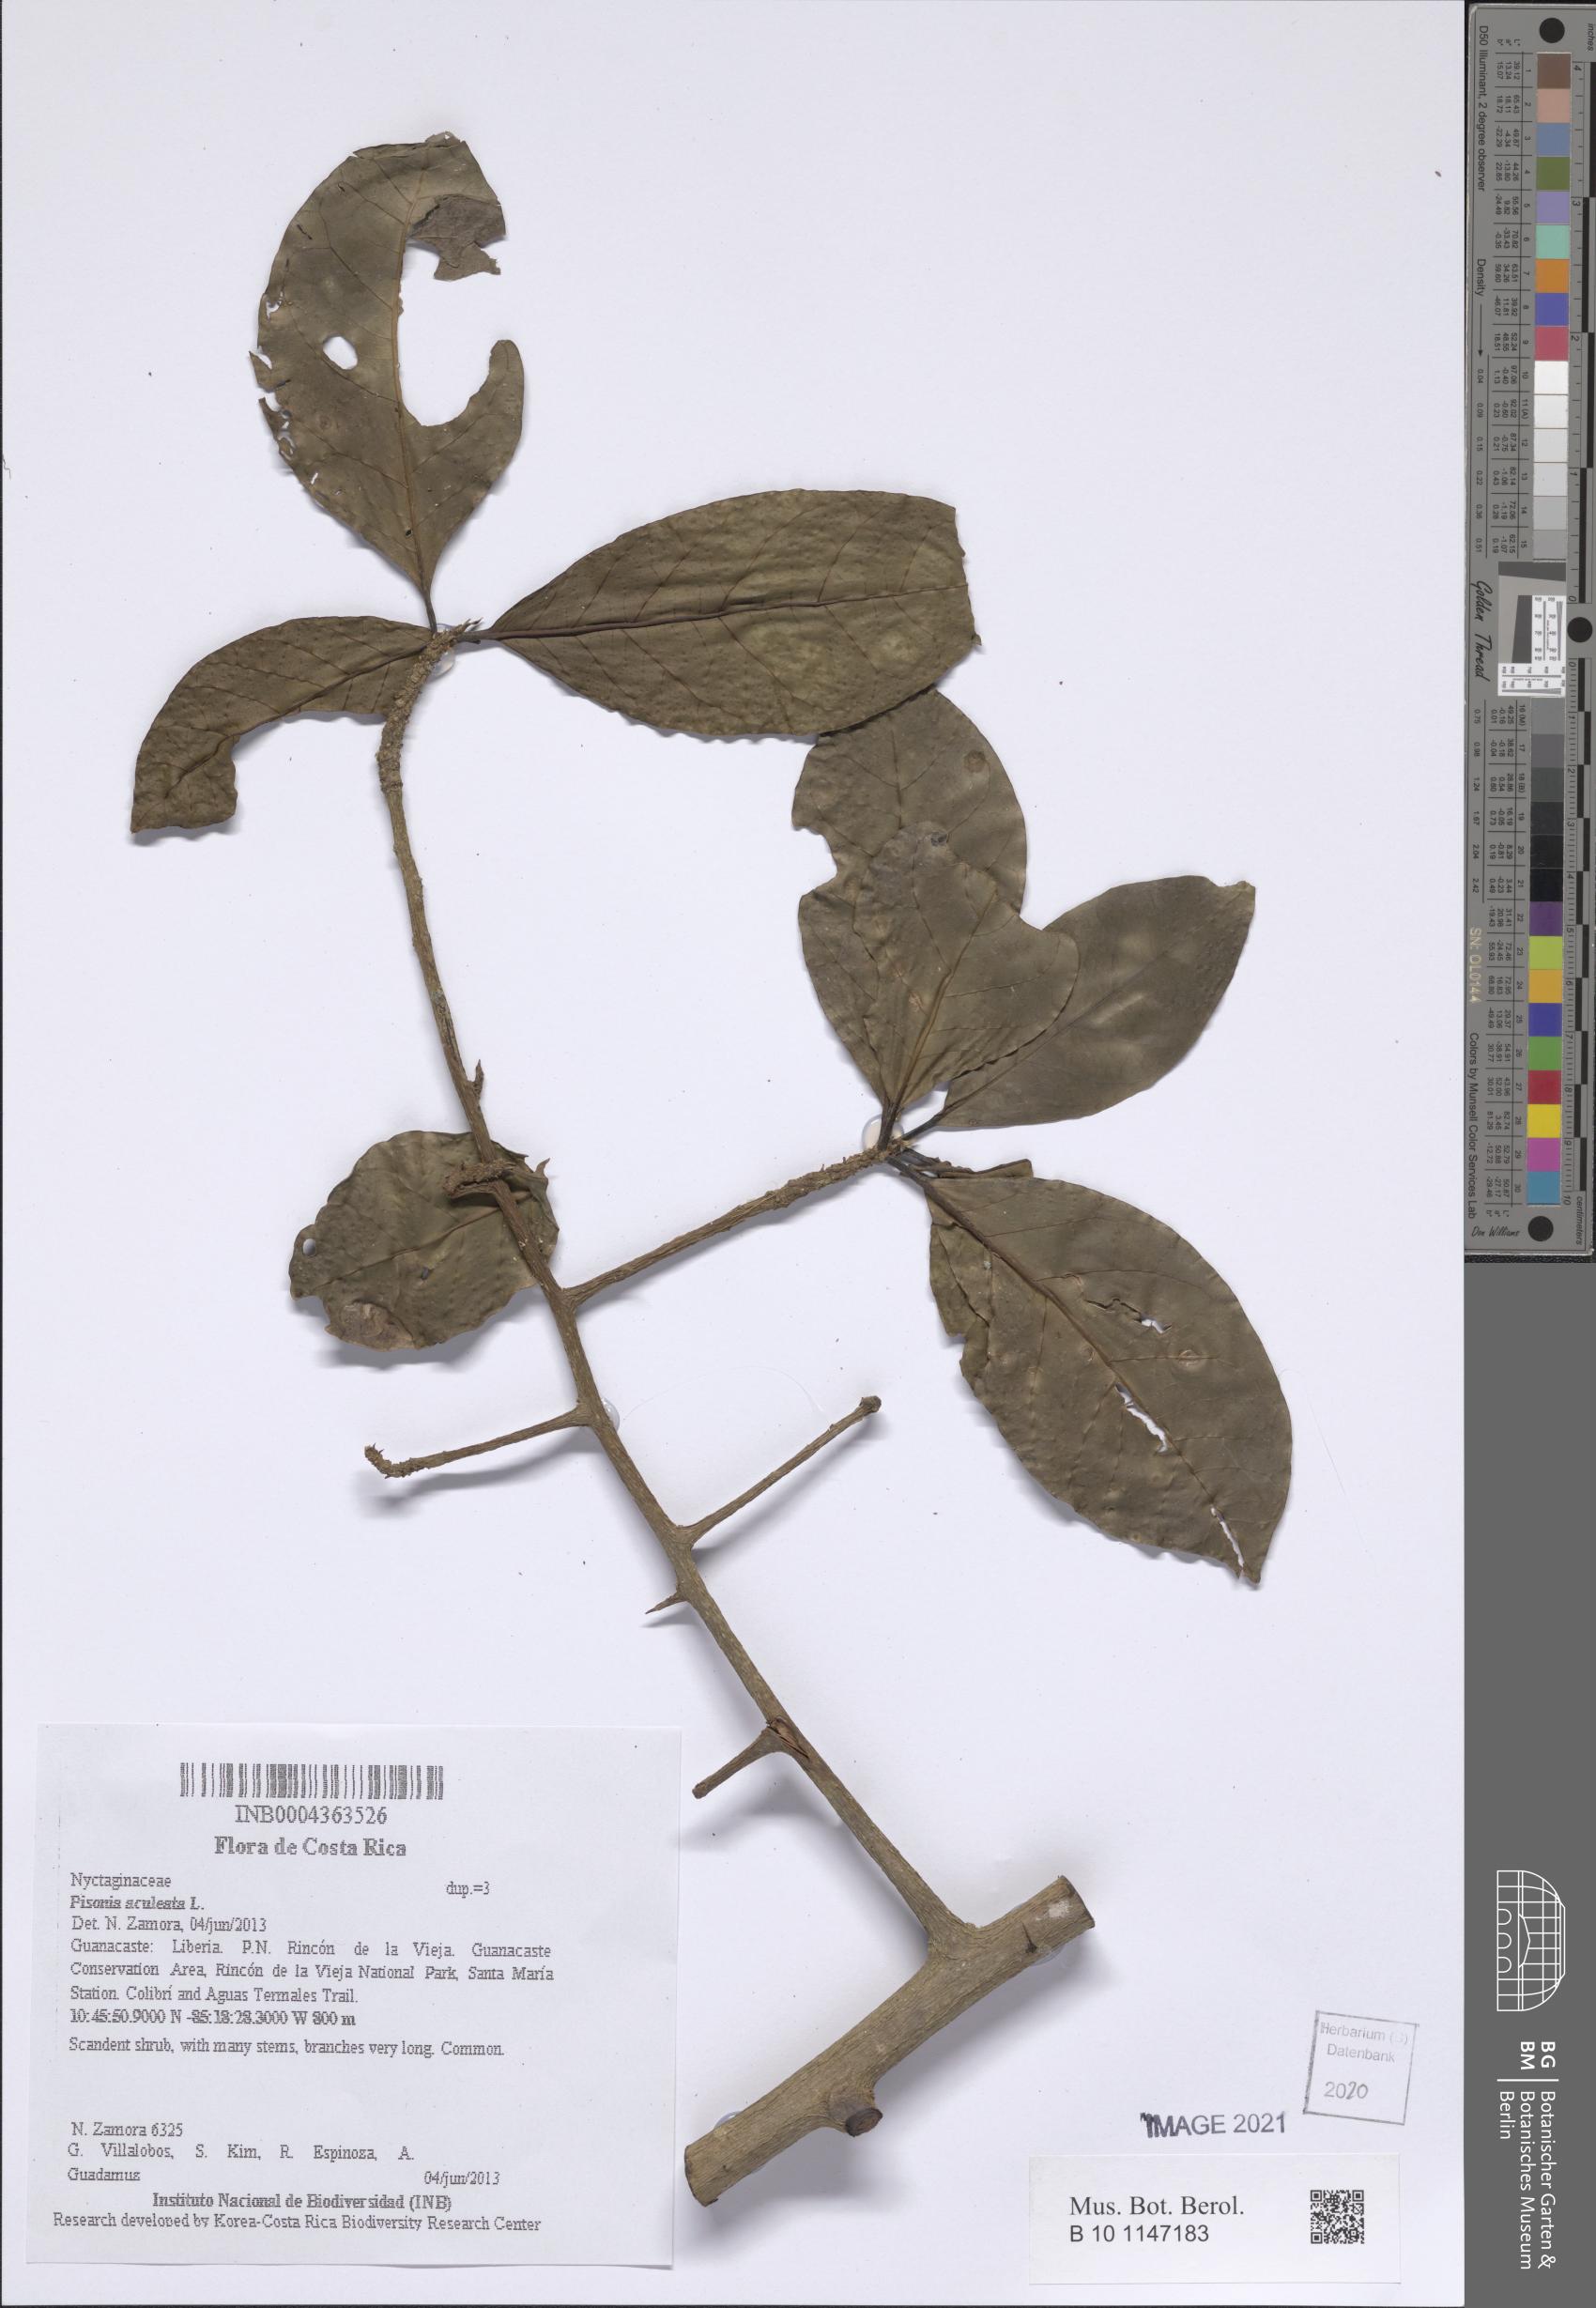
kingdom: Plantae
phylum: Tracheophyta
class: Magnoliopsida
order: Caryophyllales
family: Nyctaginaceae
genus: Pisonia
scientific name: Pisonia aculeata
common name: Cockspur vine
